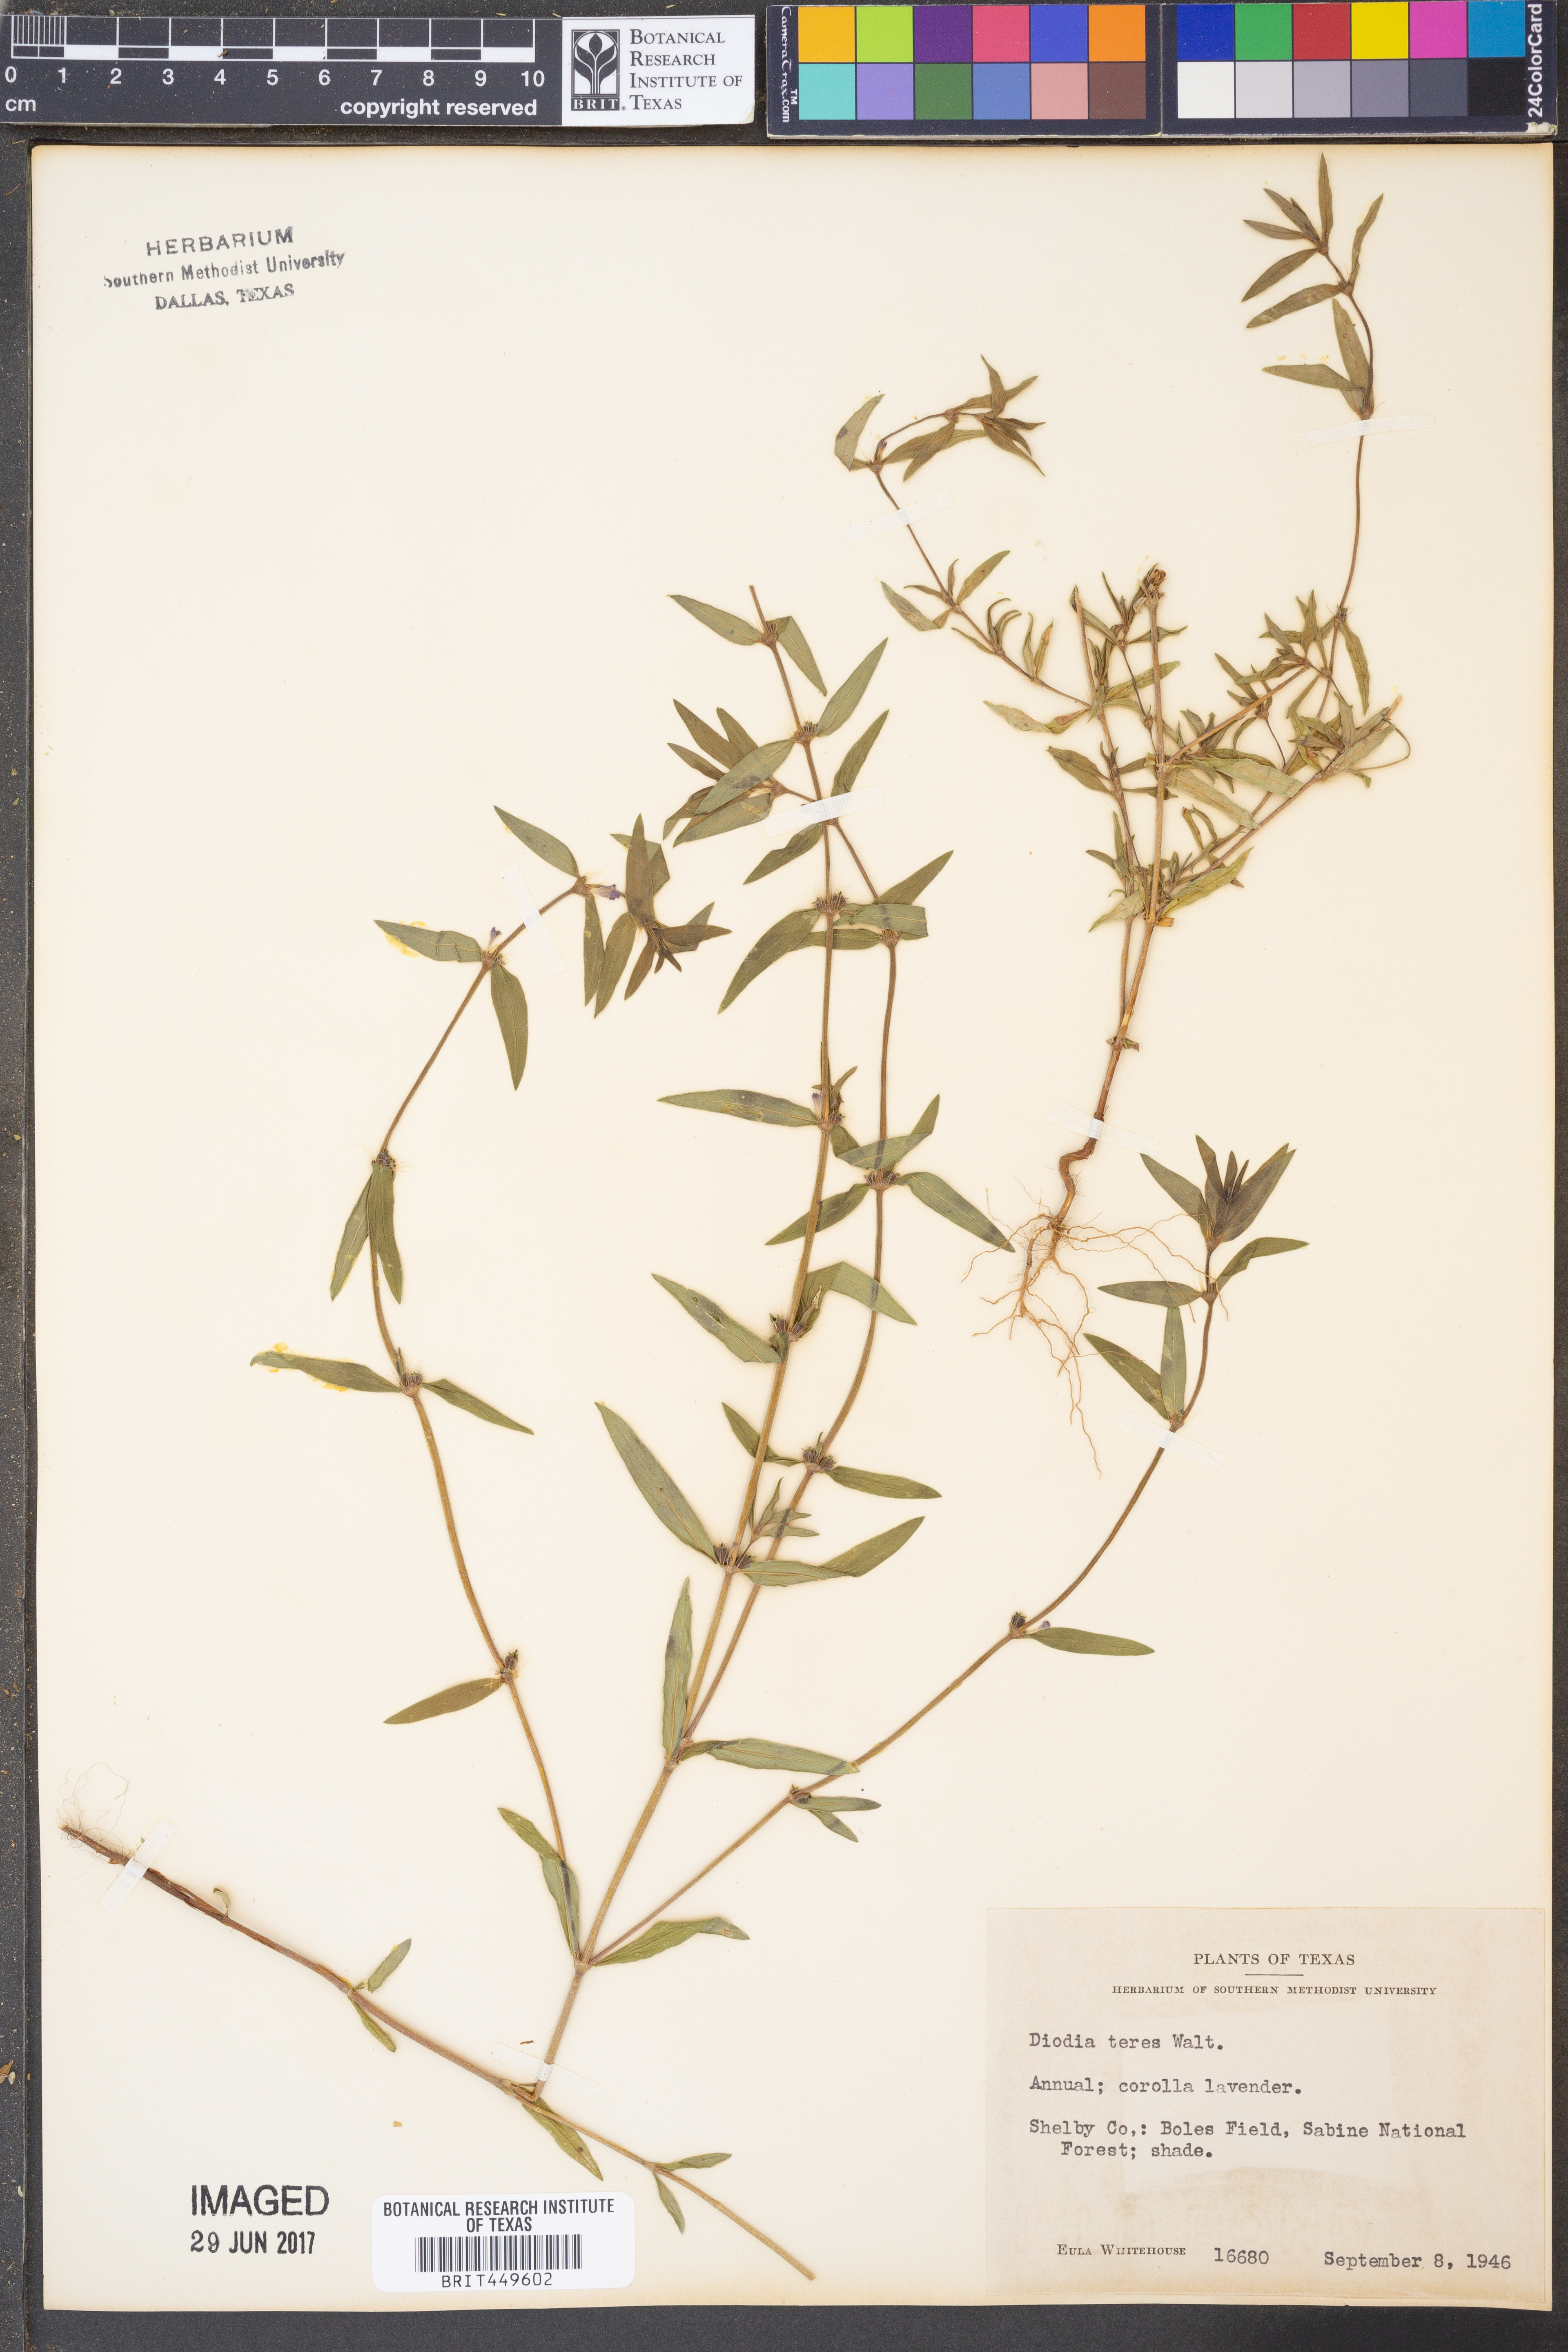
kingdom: Plantae
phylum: Tracheophyta
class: Magnoliopsida
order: Gentianales
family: Rubiaceae
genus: Hexasepalum
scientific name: Hexasepalum teres
